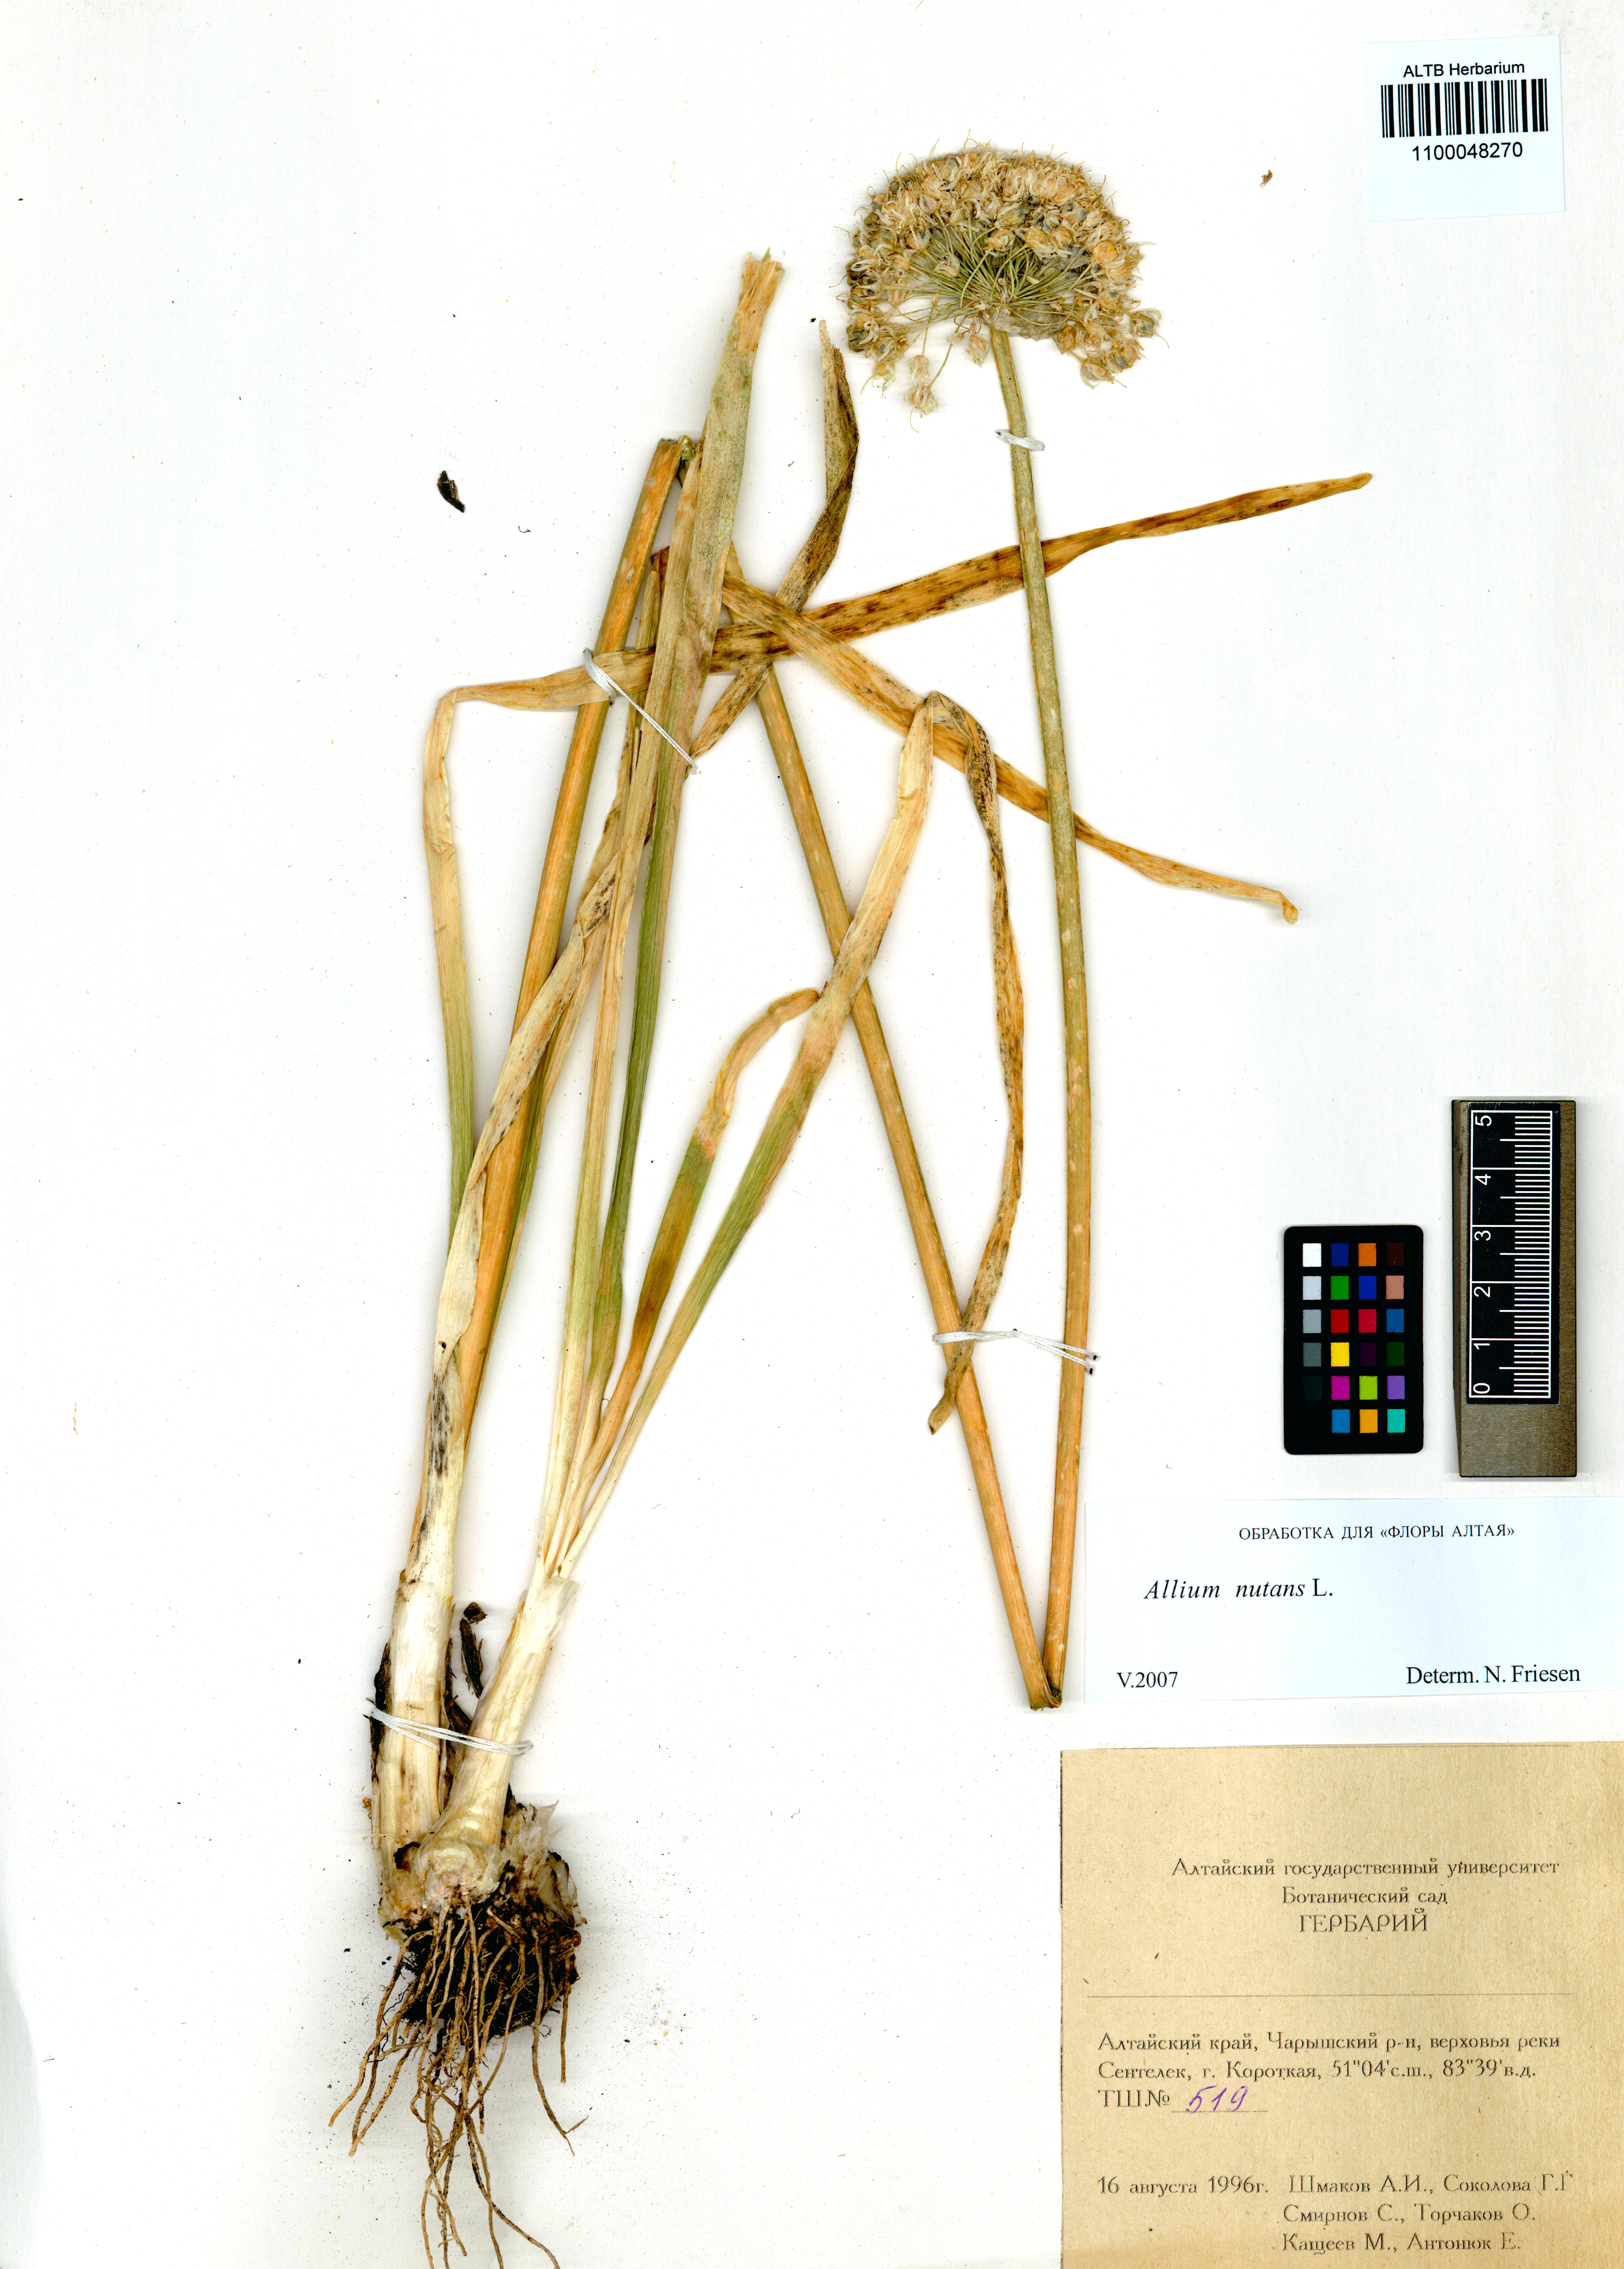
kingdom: Plantae
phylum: Tracheophyta
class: Liliopsida
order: Asparagales
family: Amaryllidaceae
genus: Allium
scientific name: Allium nutans
